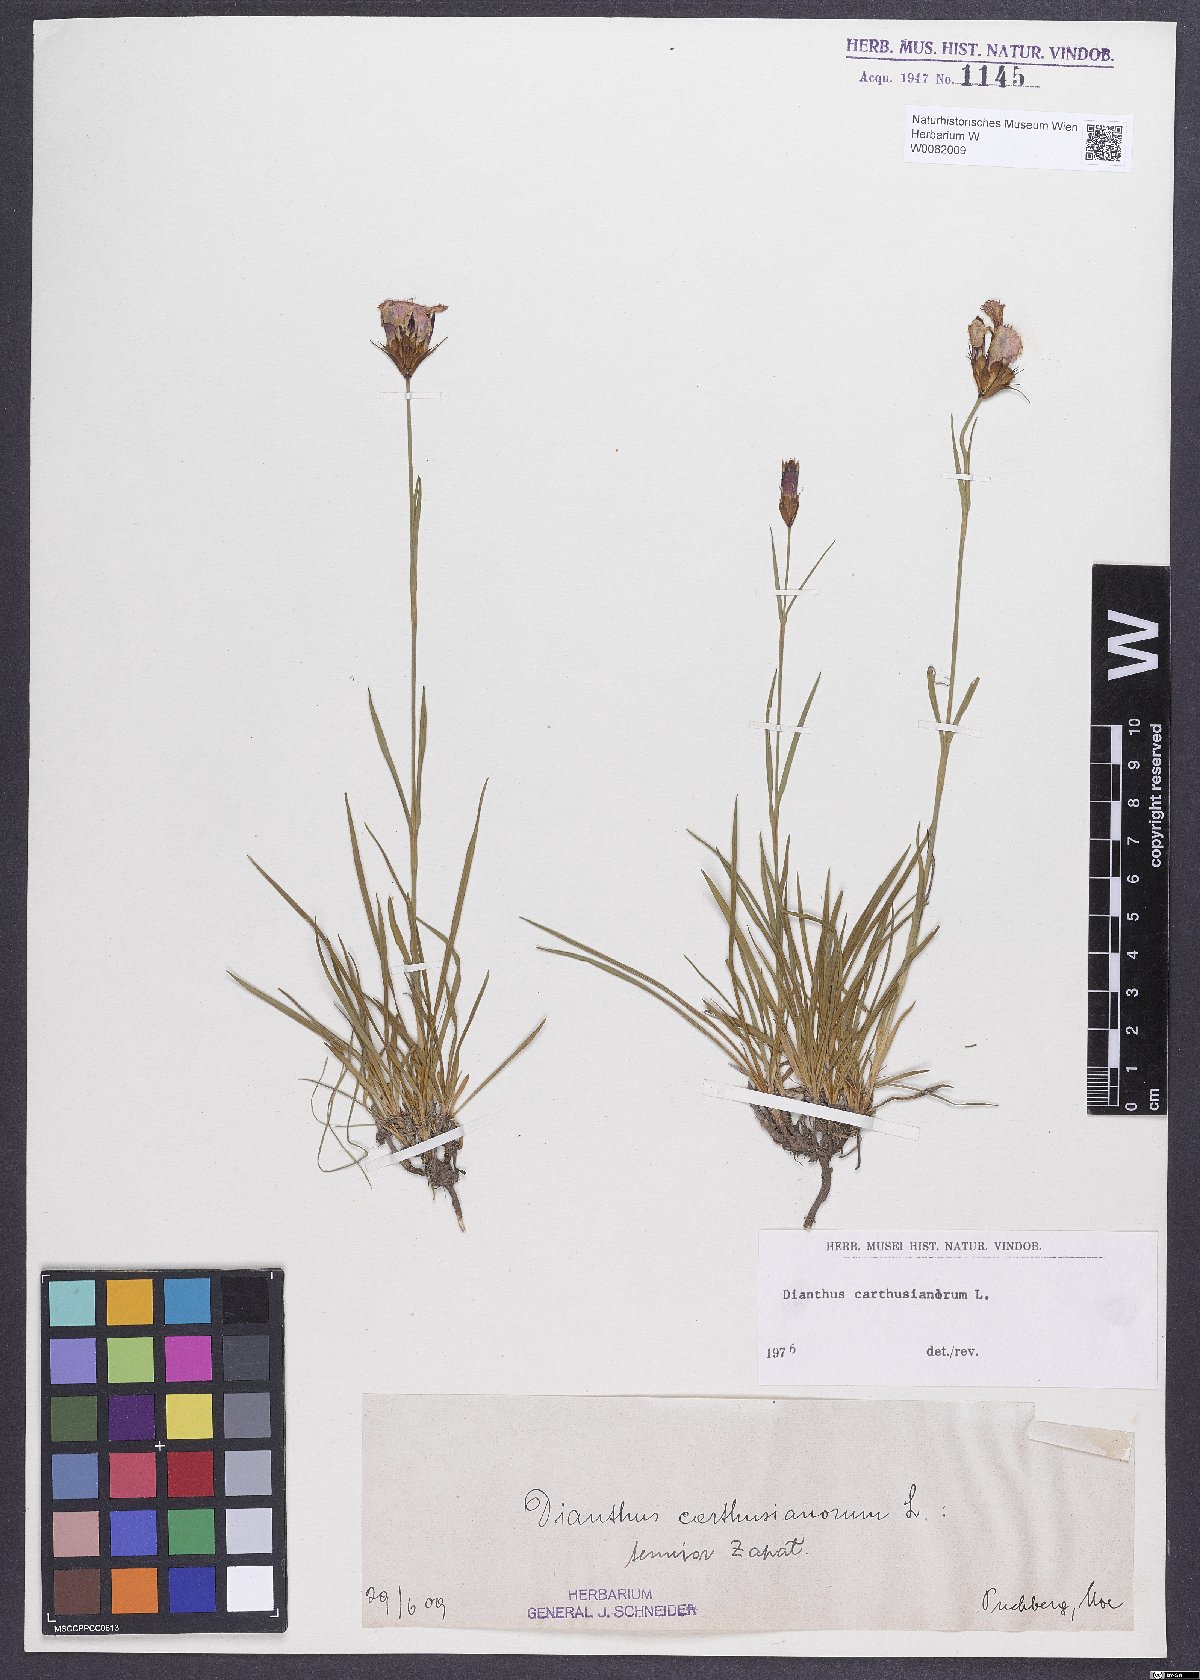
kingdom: Plantae
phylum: Tracheophyta
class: Magnoliopsida
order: Caryophyllales
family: Caryophyllaceae
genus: Dianthus
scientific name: Dianthus carthusianorum
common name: Carthusian pink
